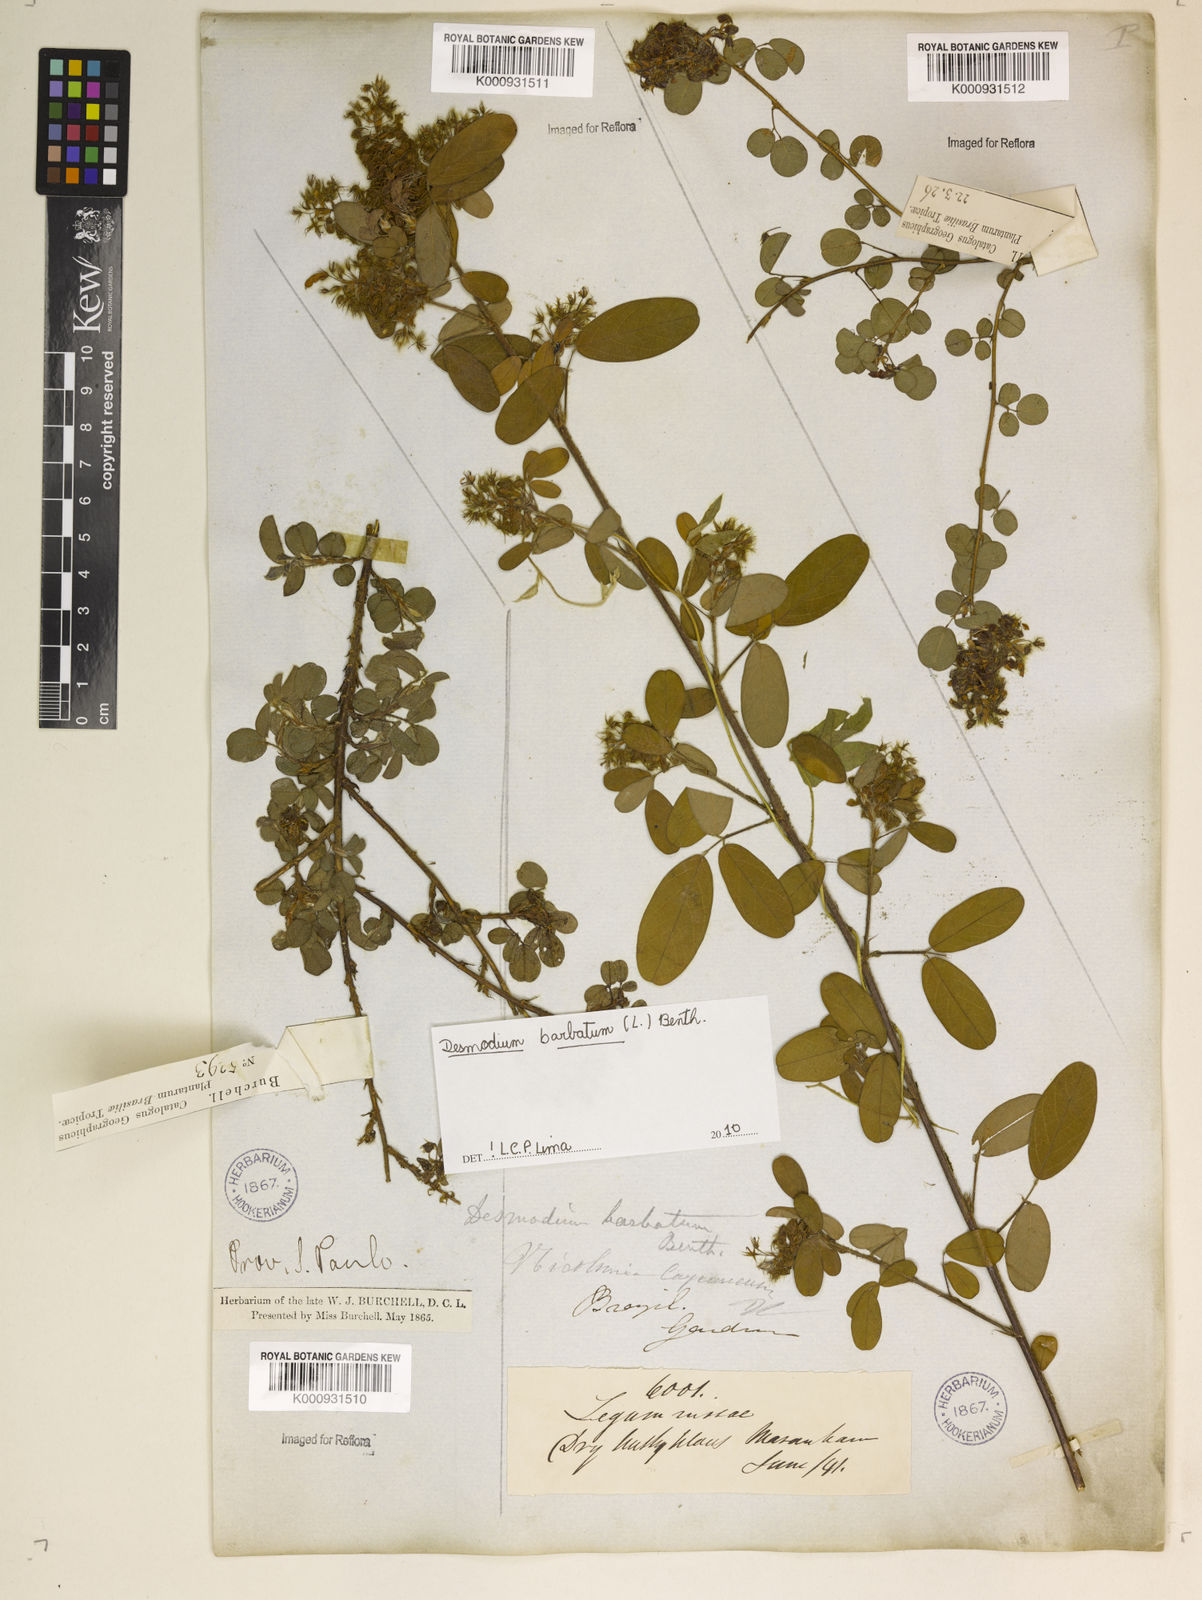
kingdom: Plantae
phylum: Tracheophyta
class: Magnoliopsida
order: Fabales
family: Fabaceae
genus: Grona
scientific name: Grona barbata
